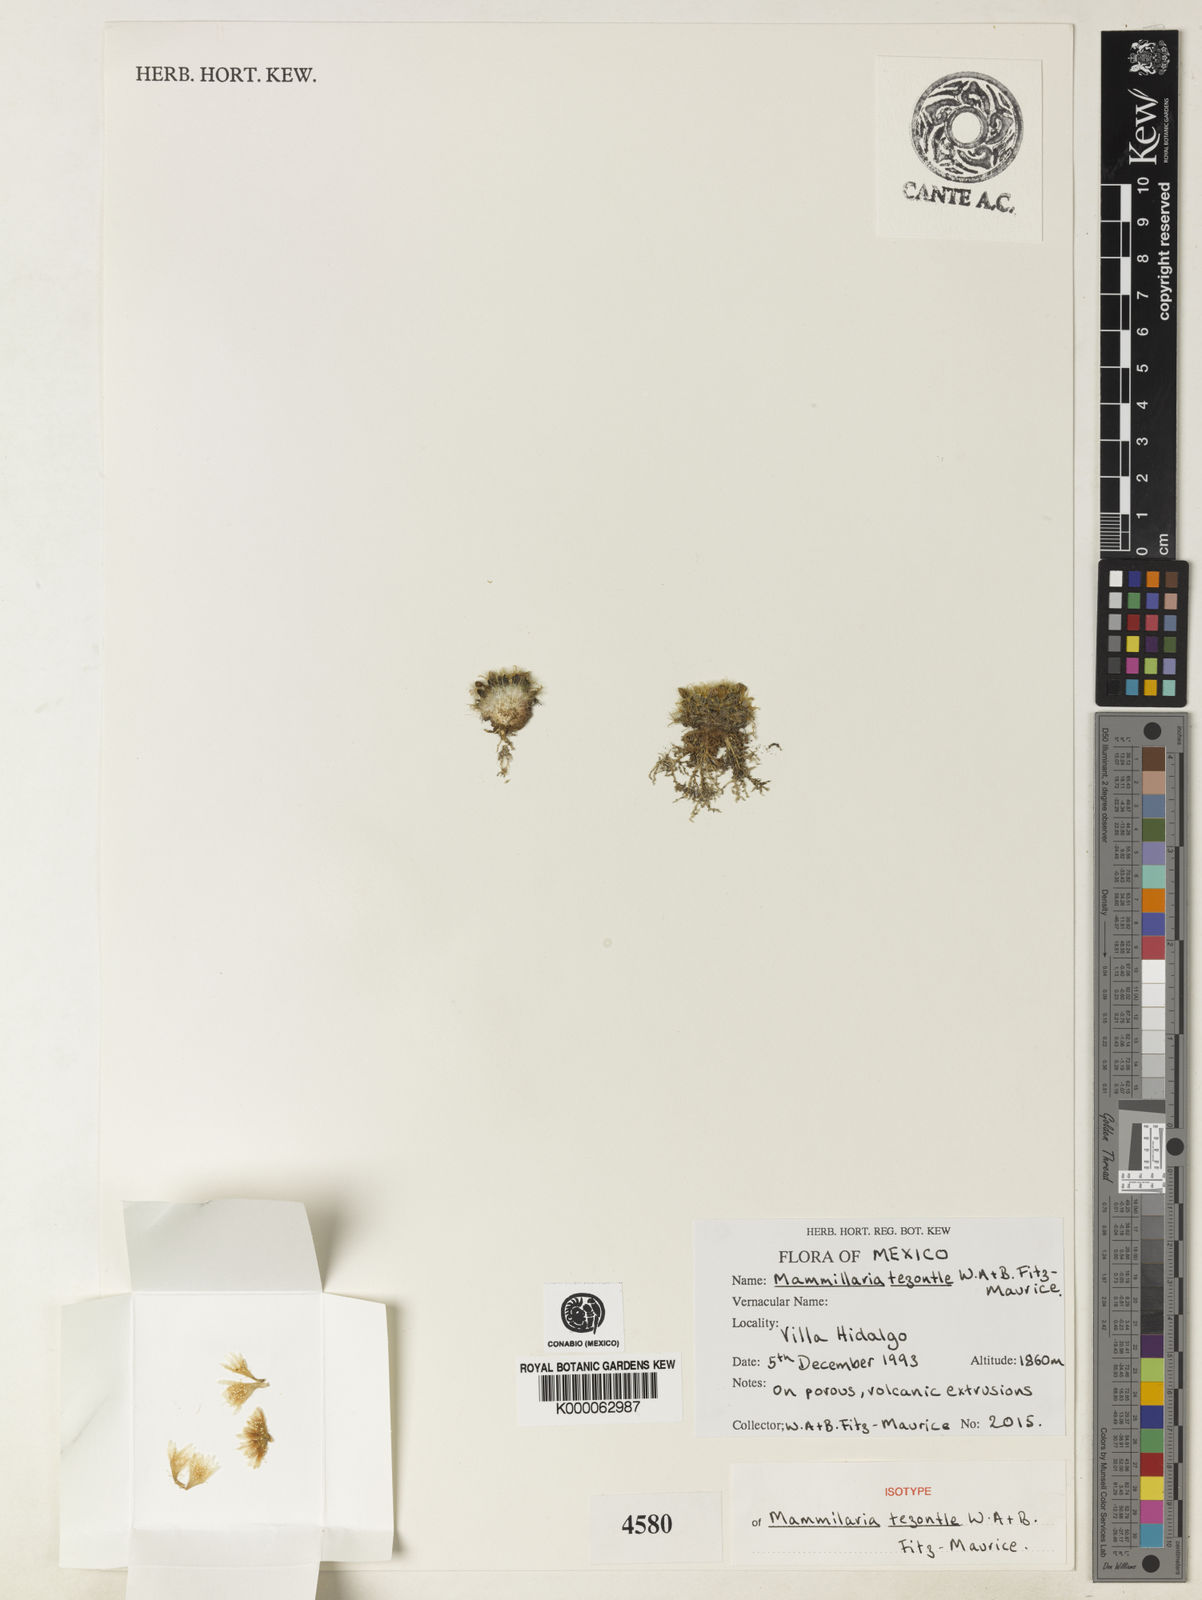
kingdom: Plantae
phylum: Tracheophyta
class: Magnoliopsida
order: Caryophyllales
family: Cactaceae
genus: Mammillaria
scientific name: Mammillaria crinita
